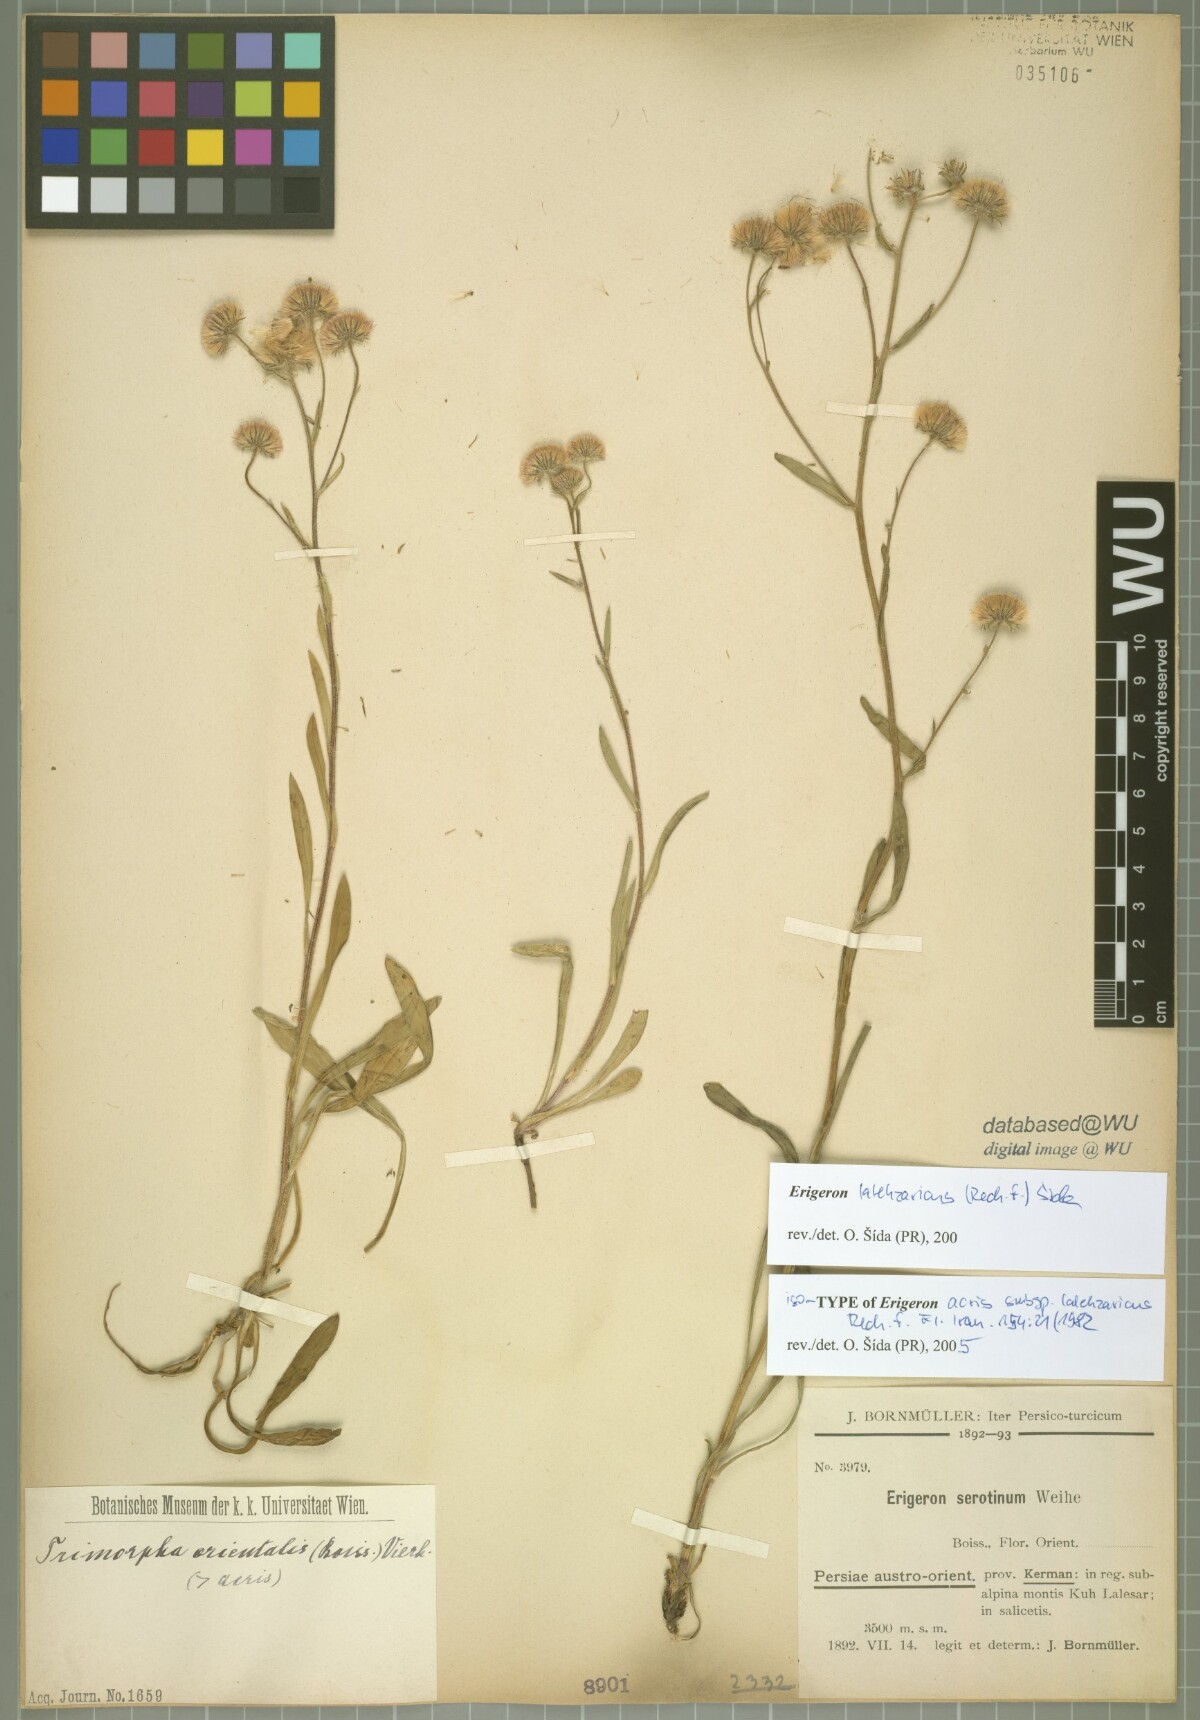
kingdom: Plantae
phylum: Tracheophyta
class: Magnoliopsida
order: Asterales
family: Asteraceae
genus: Erigeron
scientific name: Erigeron lalehzaricus
